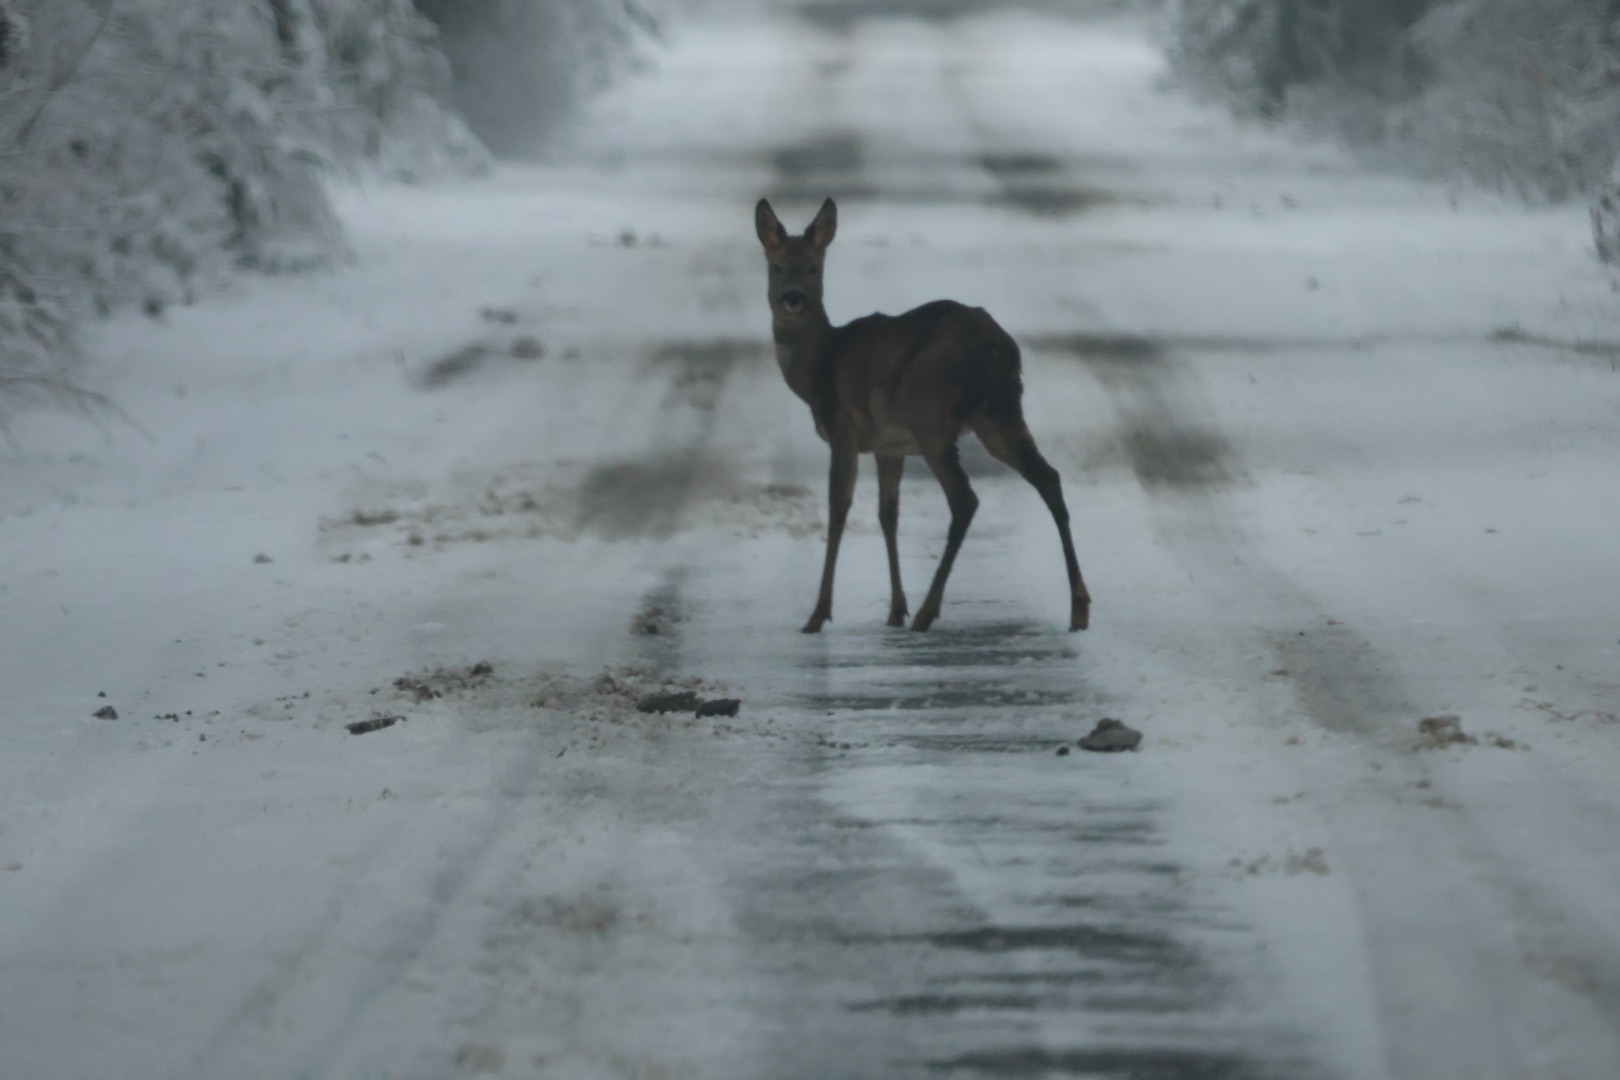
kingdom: Animalia
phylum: Chordata
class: Mammalia
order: Artiodactyla
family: Cervidae
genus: Capreolus
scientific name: Capreolus capreolus
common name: Rådyr
